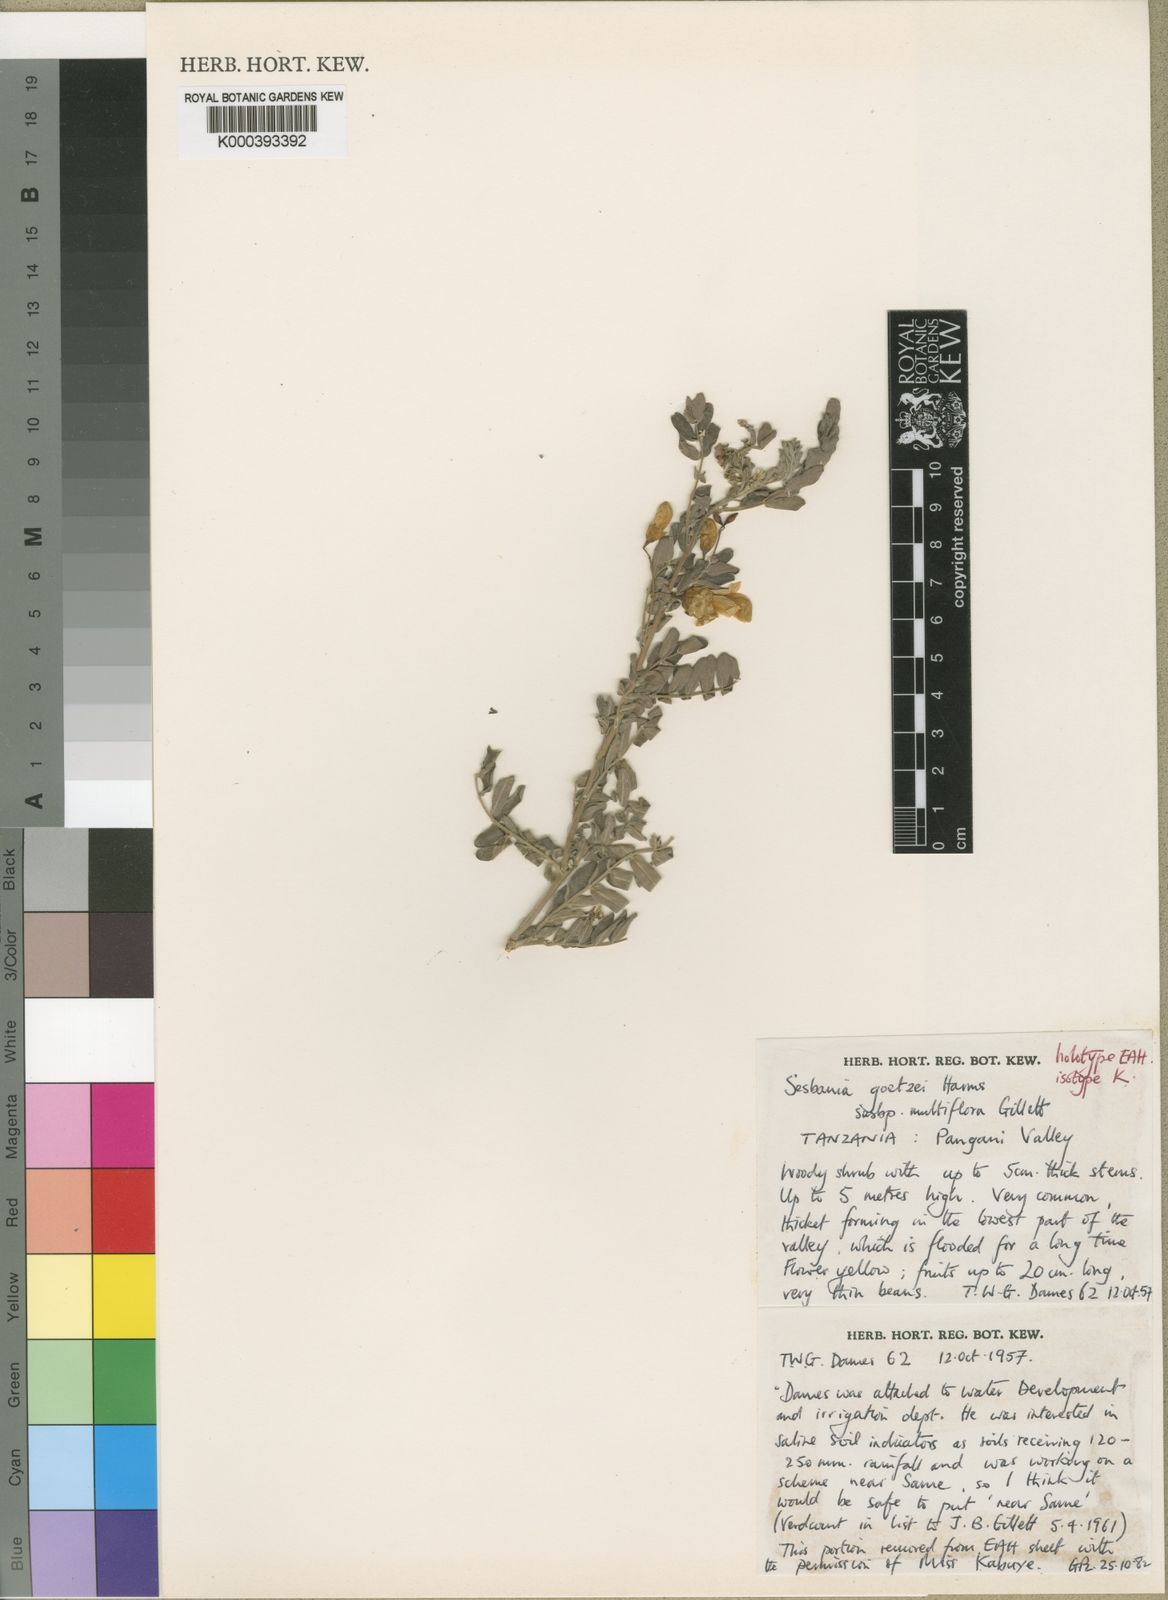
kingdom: Plantae
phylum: Tracheophyta
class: Magnoliopsida
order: Fabales
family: Fabaceae
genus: Sesbania
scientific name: Sesbania goetzei
